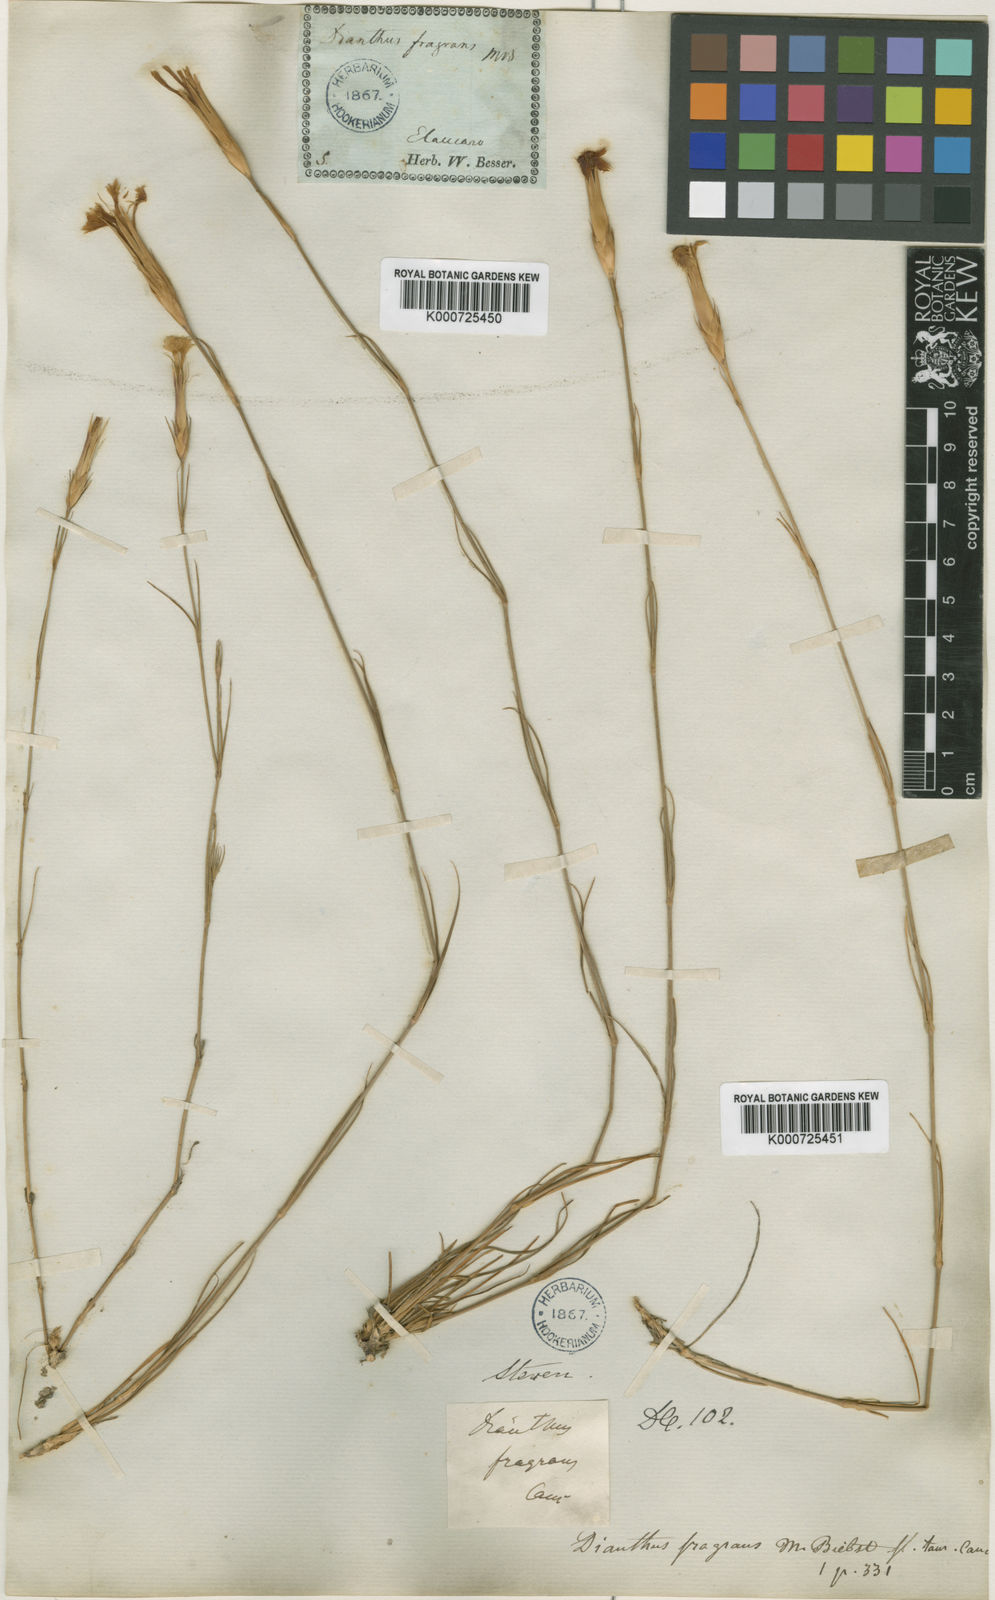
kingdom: Plantae
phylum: Tracheophyta
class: Magnoliopsida
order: Caryophyllales
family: Caryophyllaceae
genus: Dianthus
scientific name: Dianthus fragrans
